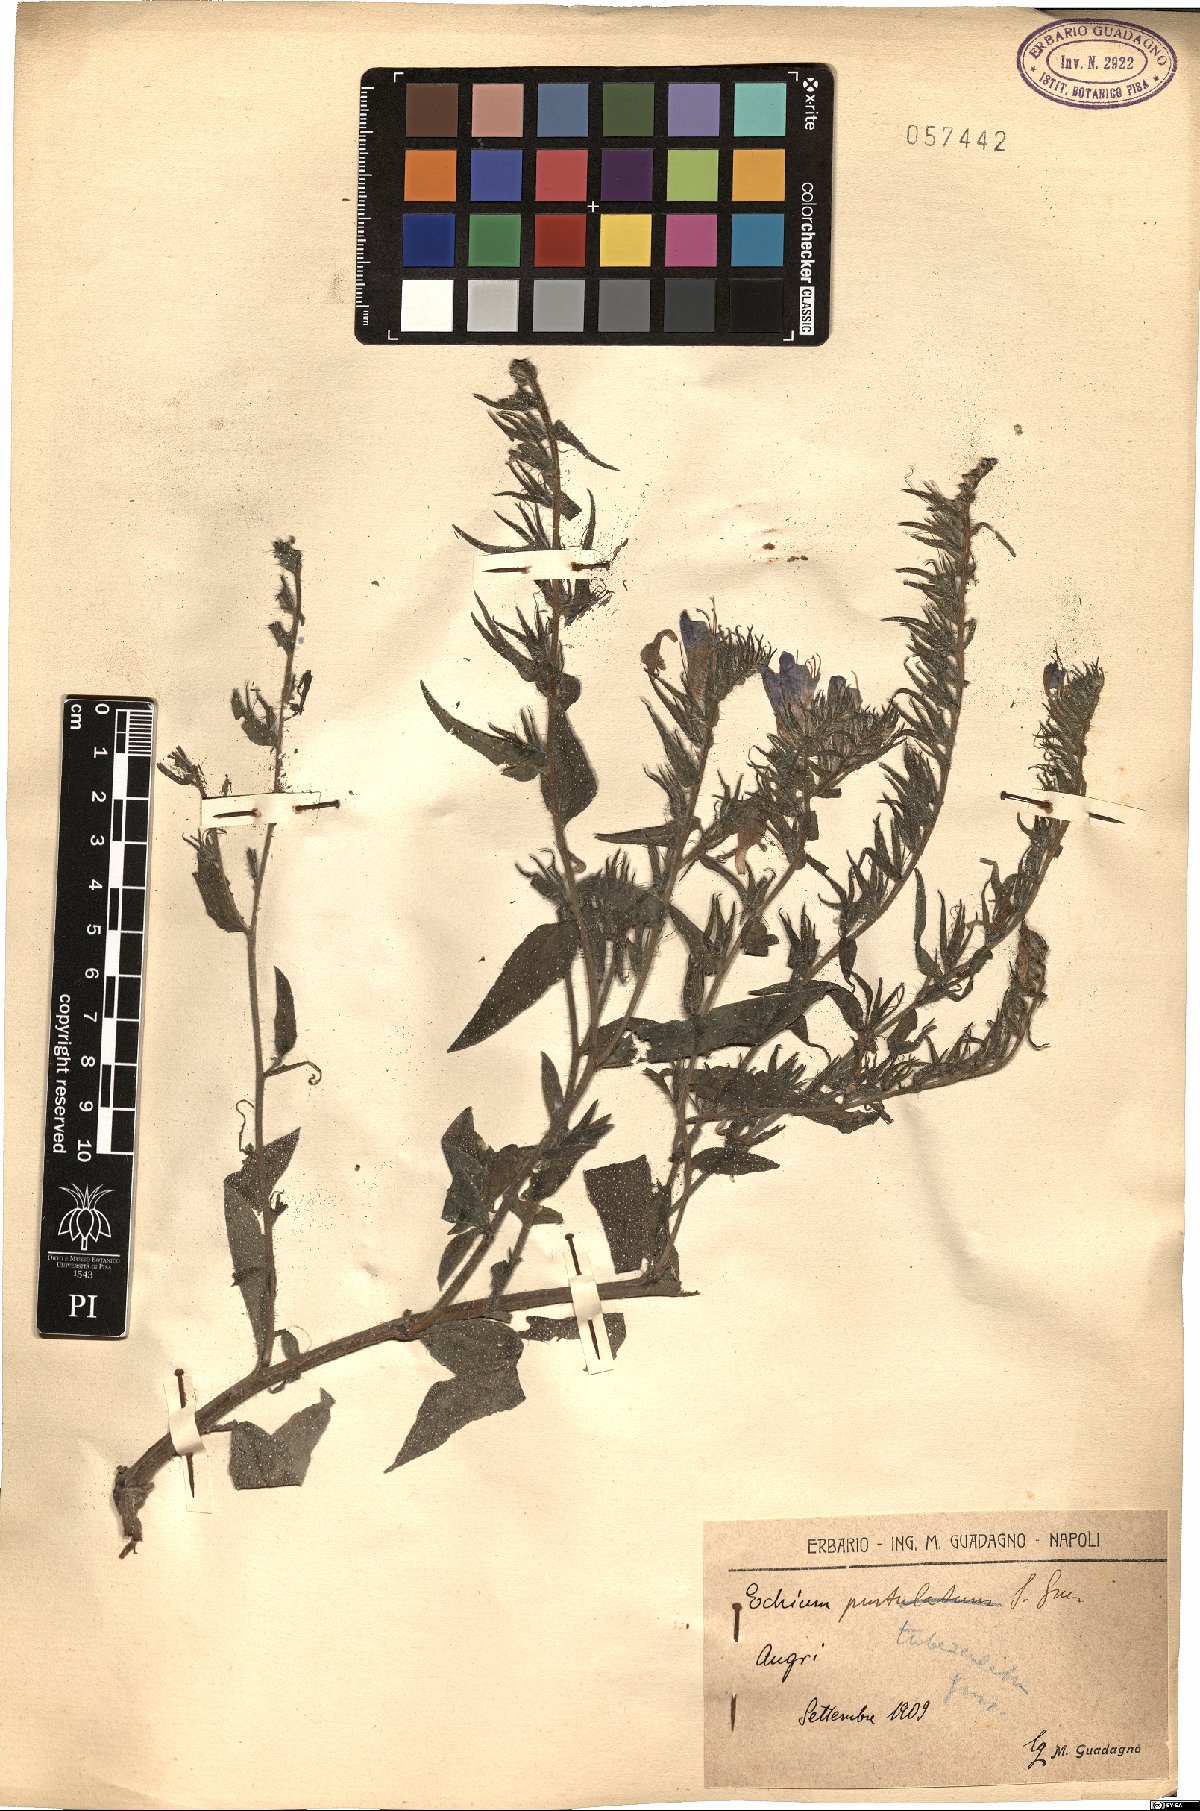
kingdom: Plantae
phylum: Tracheophyta
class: Magnoliopsida
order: Boraginales
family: Boraginaceae
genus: Echium
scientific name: Echium tuberculatum
